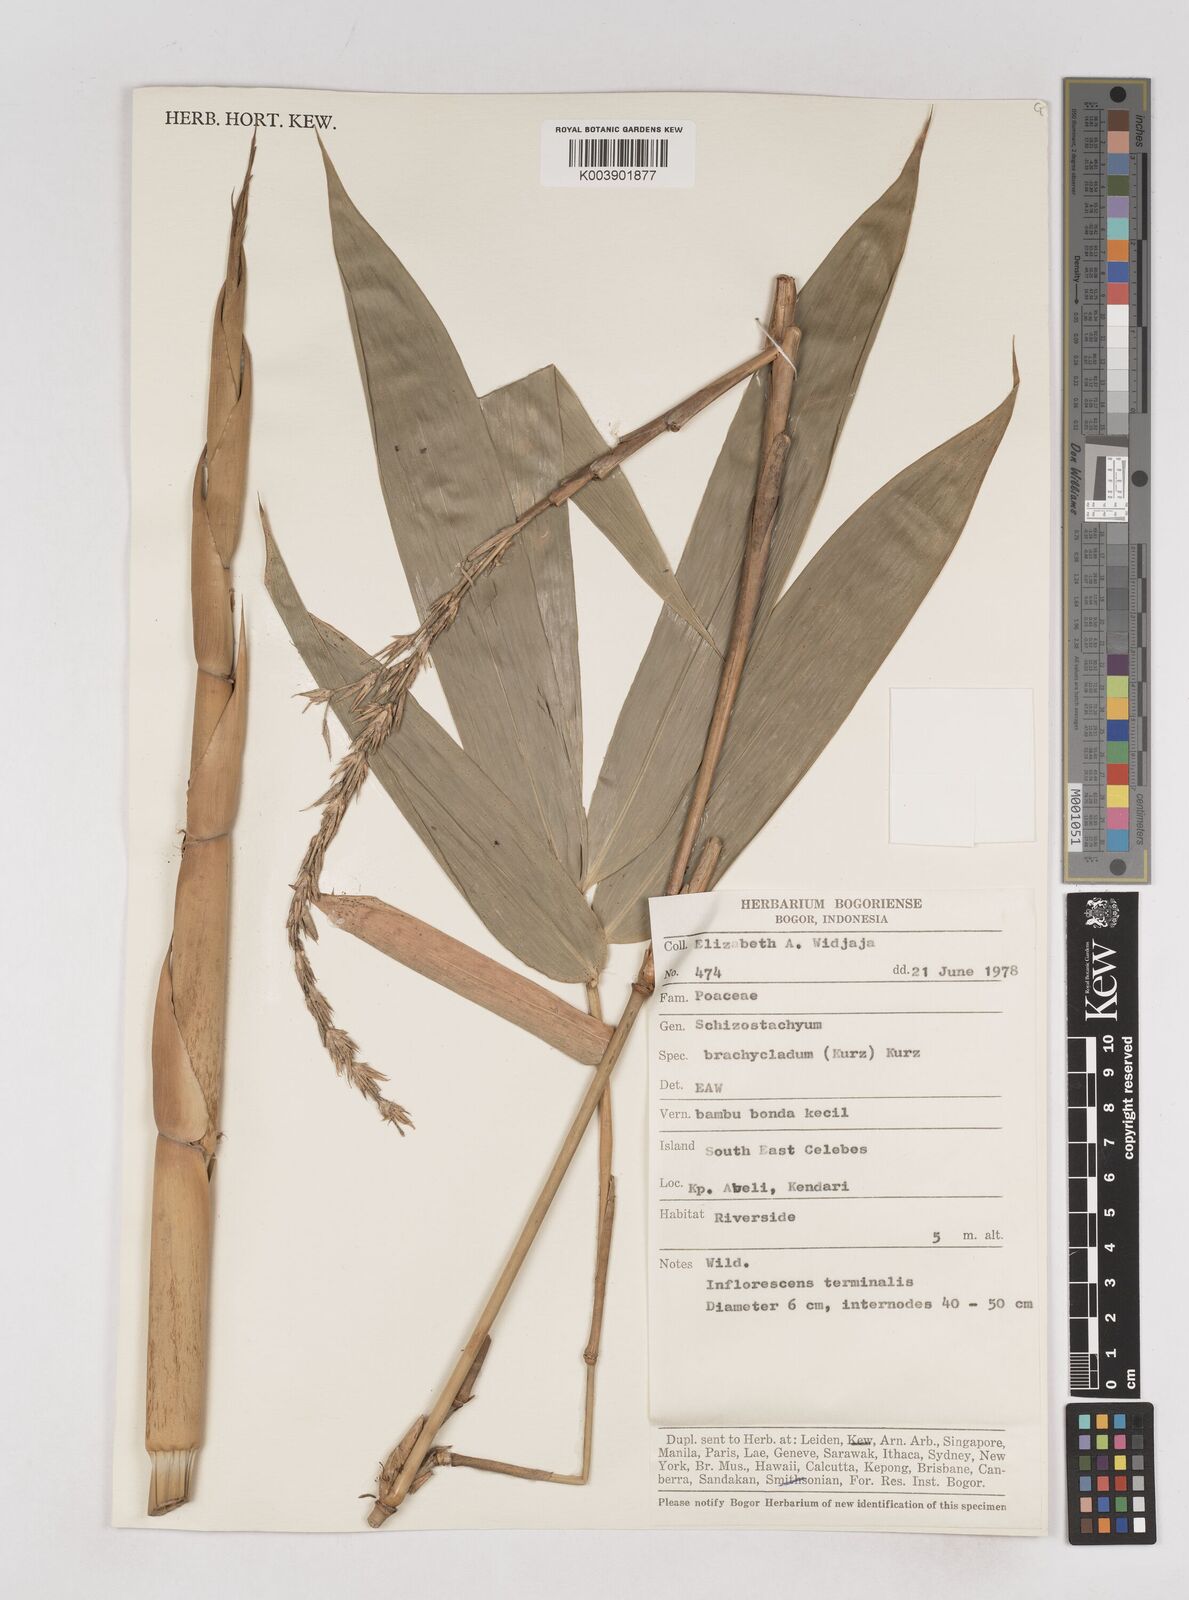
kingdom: Plantae
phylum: Tracheophyta
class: Liliopsida
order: Poales
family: Poaceae
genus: Schizostachyum
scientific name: Schizostachyum brachycladum
